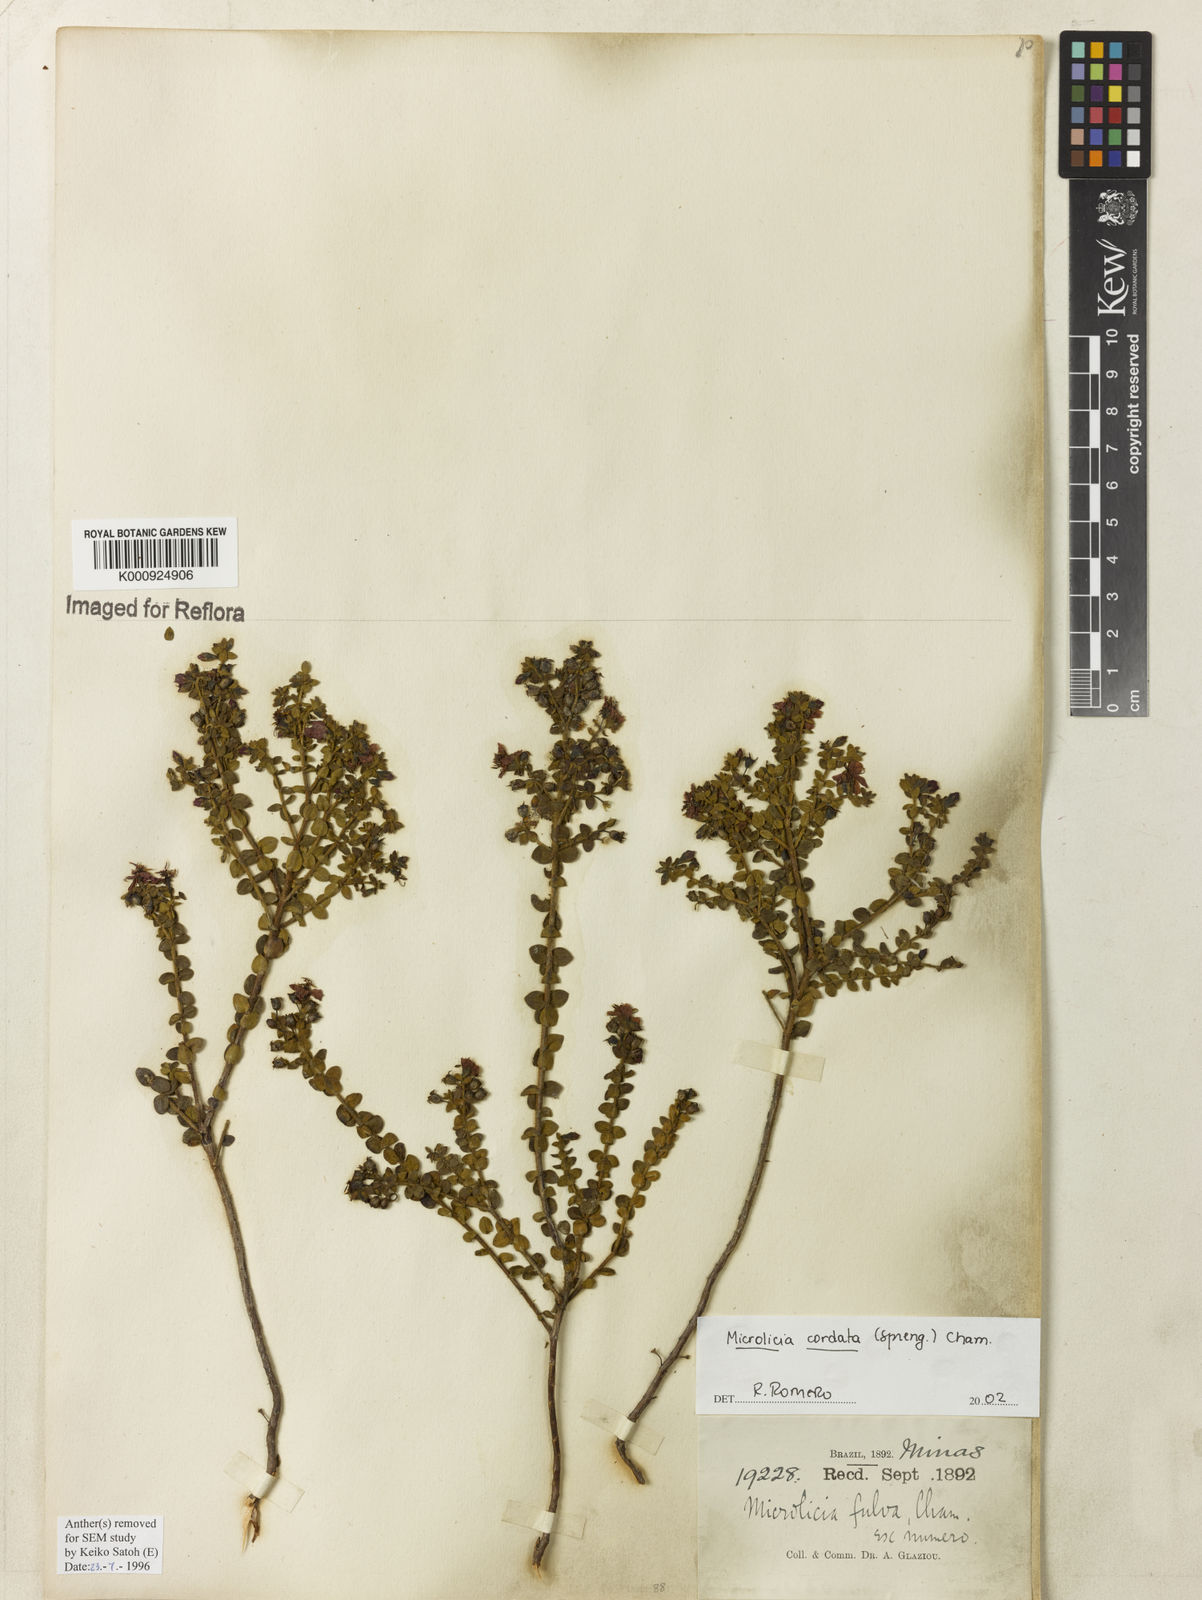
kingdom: Plantae
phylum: Tracheophyta
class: Magnoliopsida
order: Myrtales
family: Melastomataceae
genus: Microlicia
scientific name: Microlicia cordata
